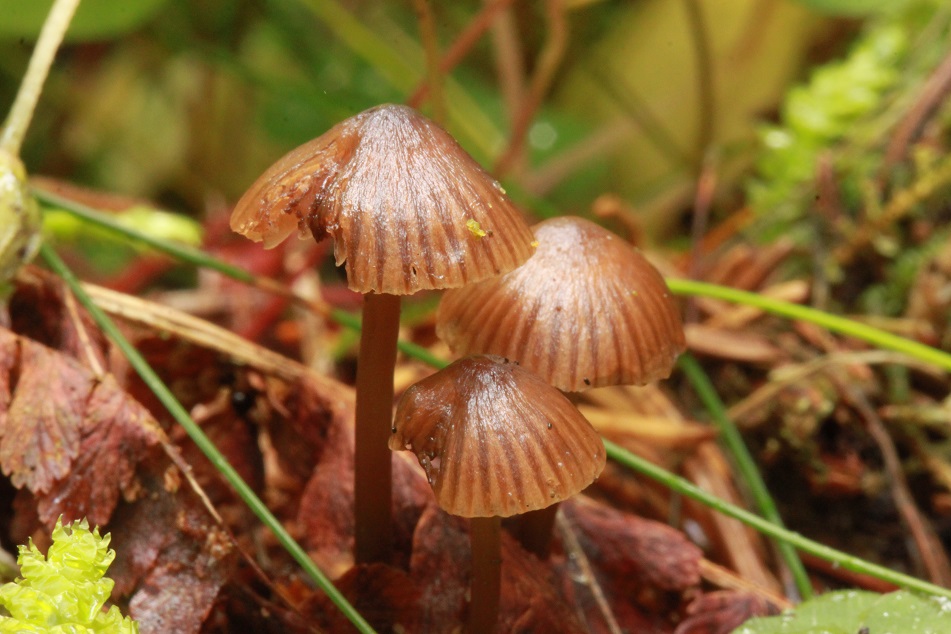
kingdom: Fungi
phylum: Basidiomycota
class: Agaricomycetes
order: Agaricales
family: Mycenaceae
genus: Mycena
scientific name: Mycena stipata
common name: stinkende huesvamp
